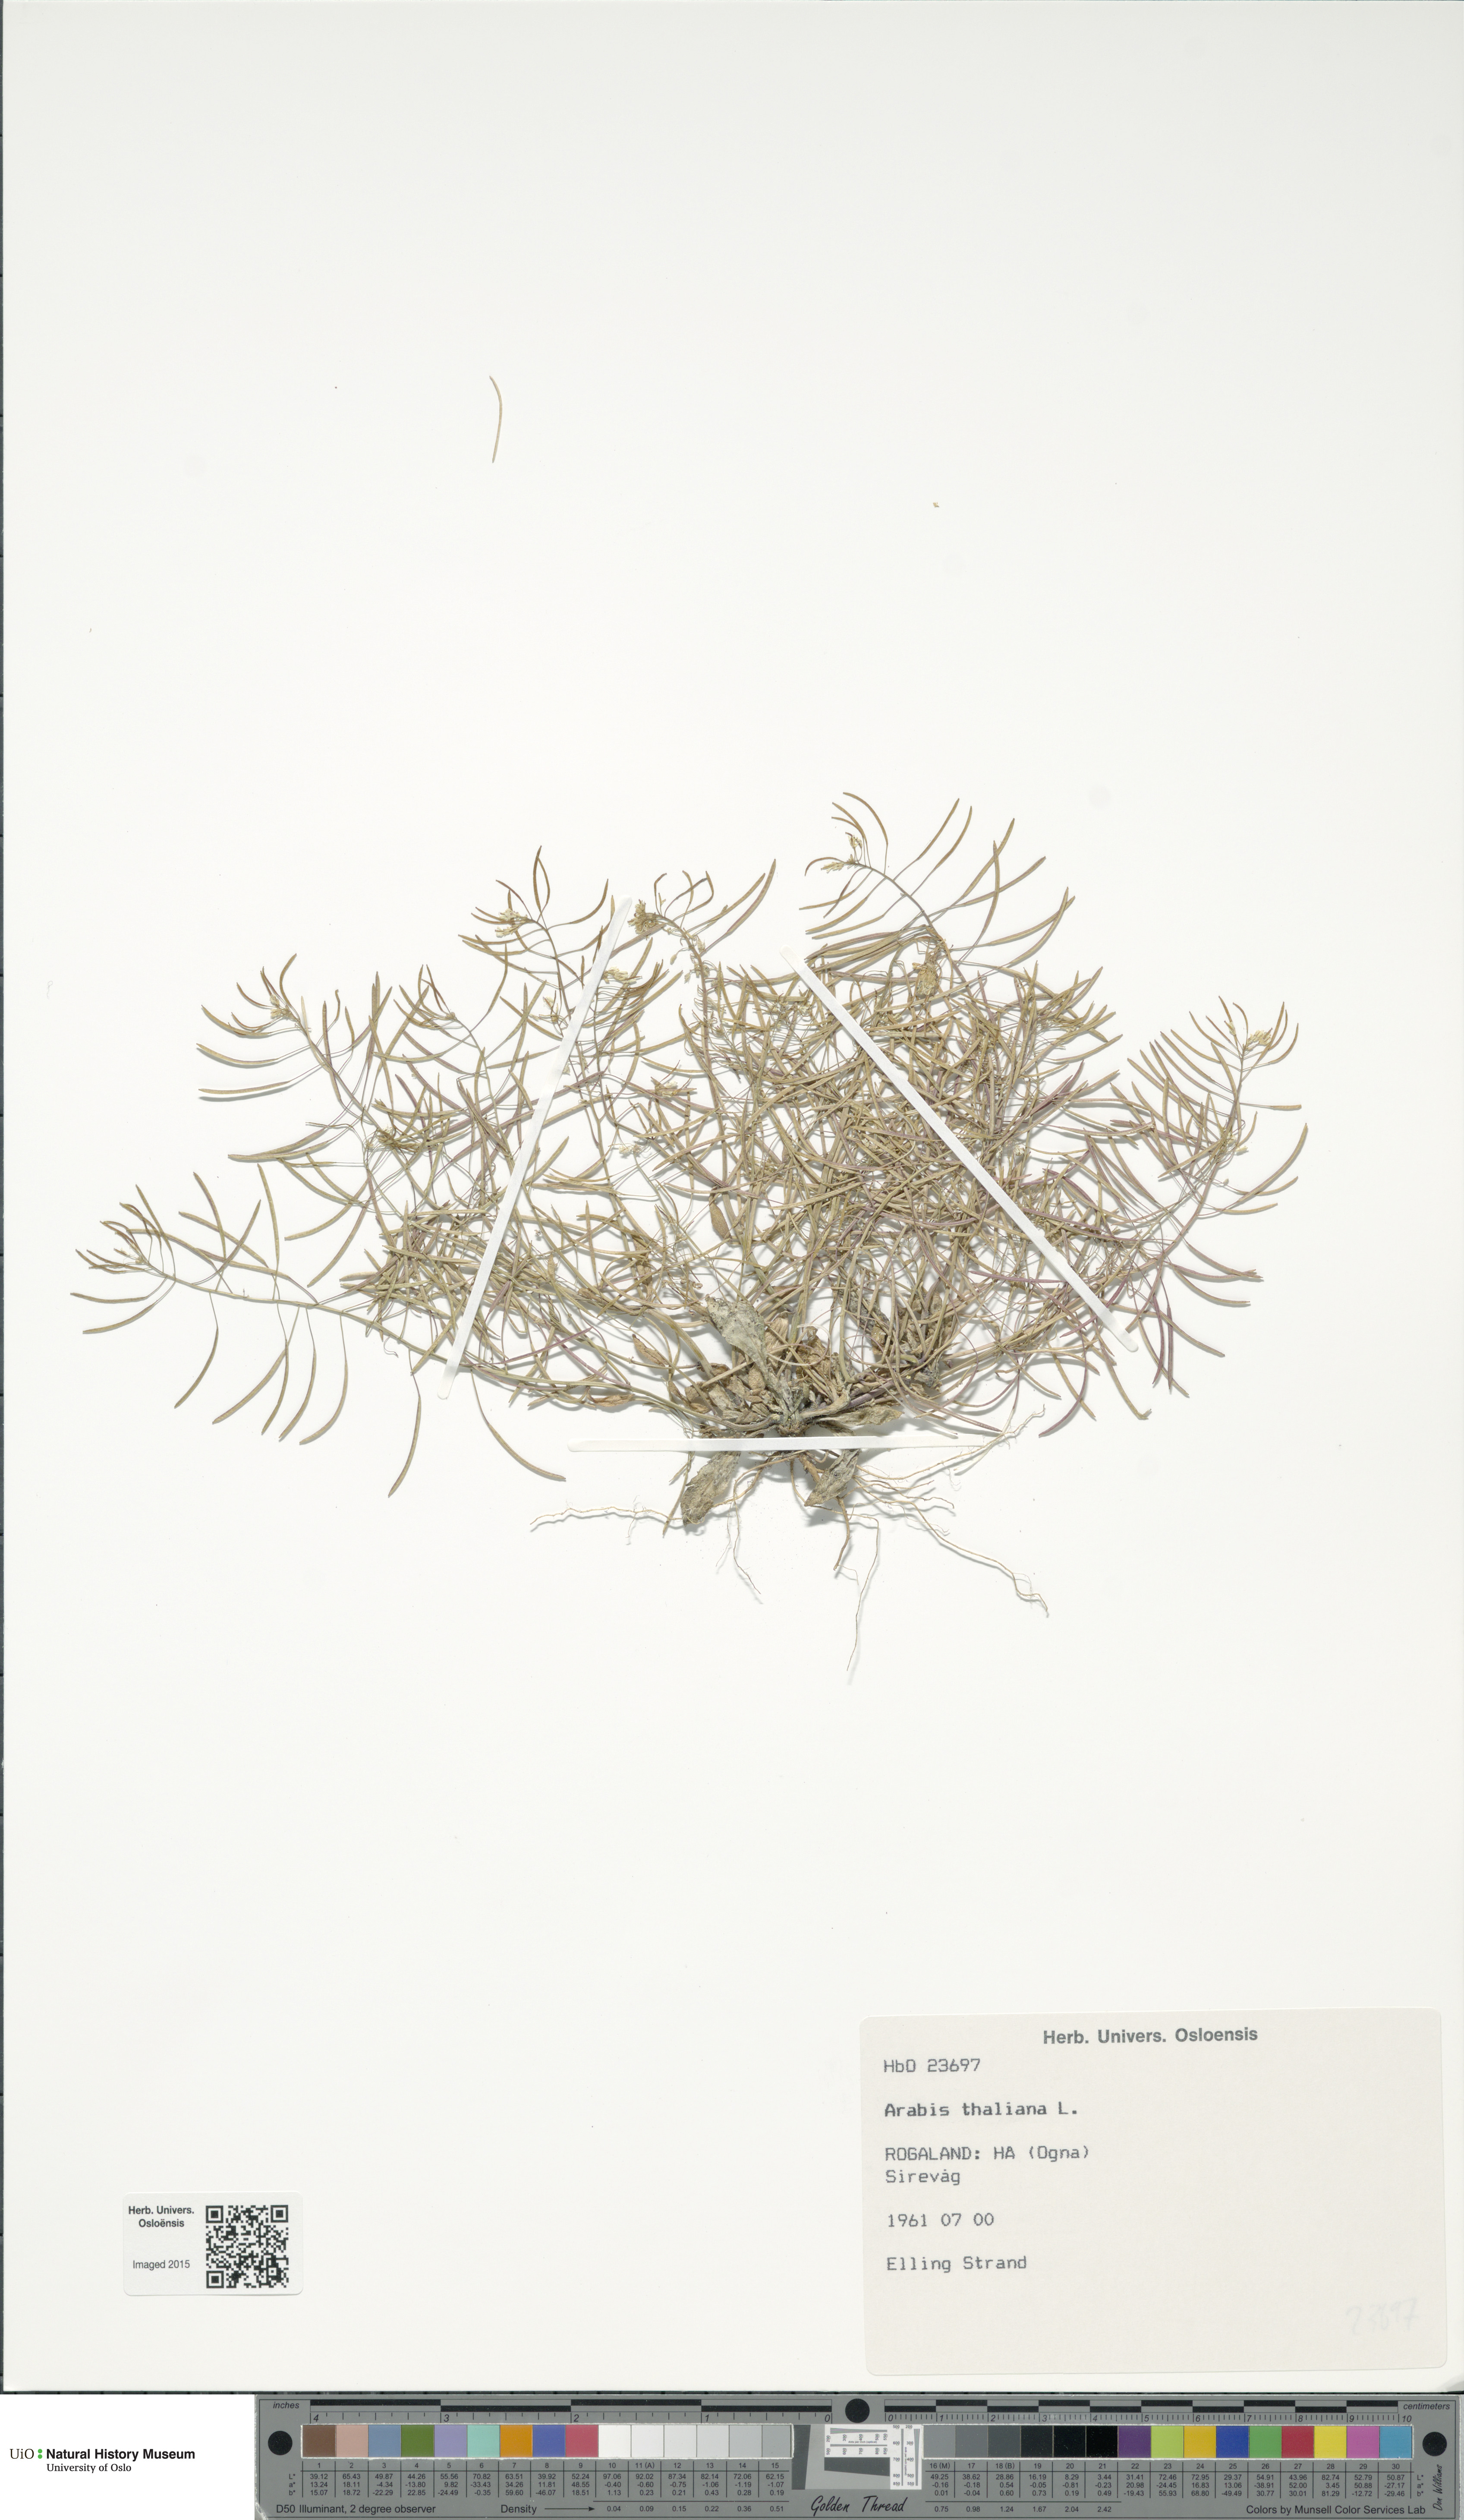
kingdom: Plantae
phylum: Tracheophyta
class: Magnoliopsida
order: Brassicales
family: Brassicaceae
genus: Arabidopsis
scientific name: Arabidopsis thaliana
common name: Thale cress
